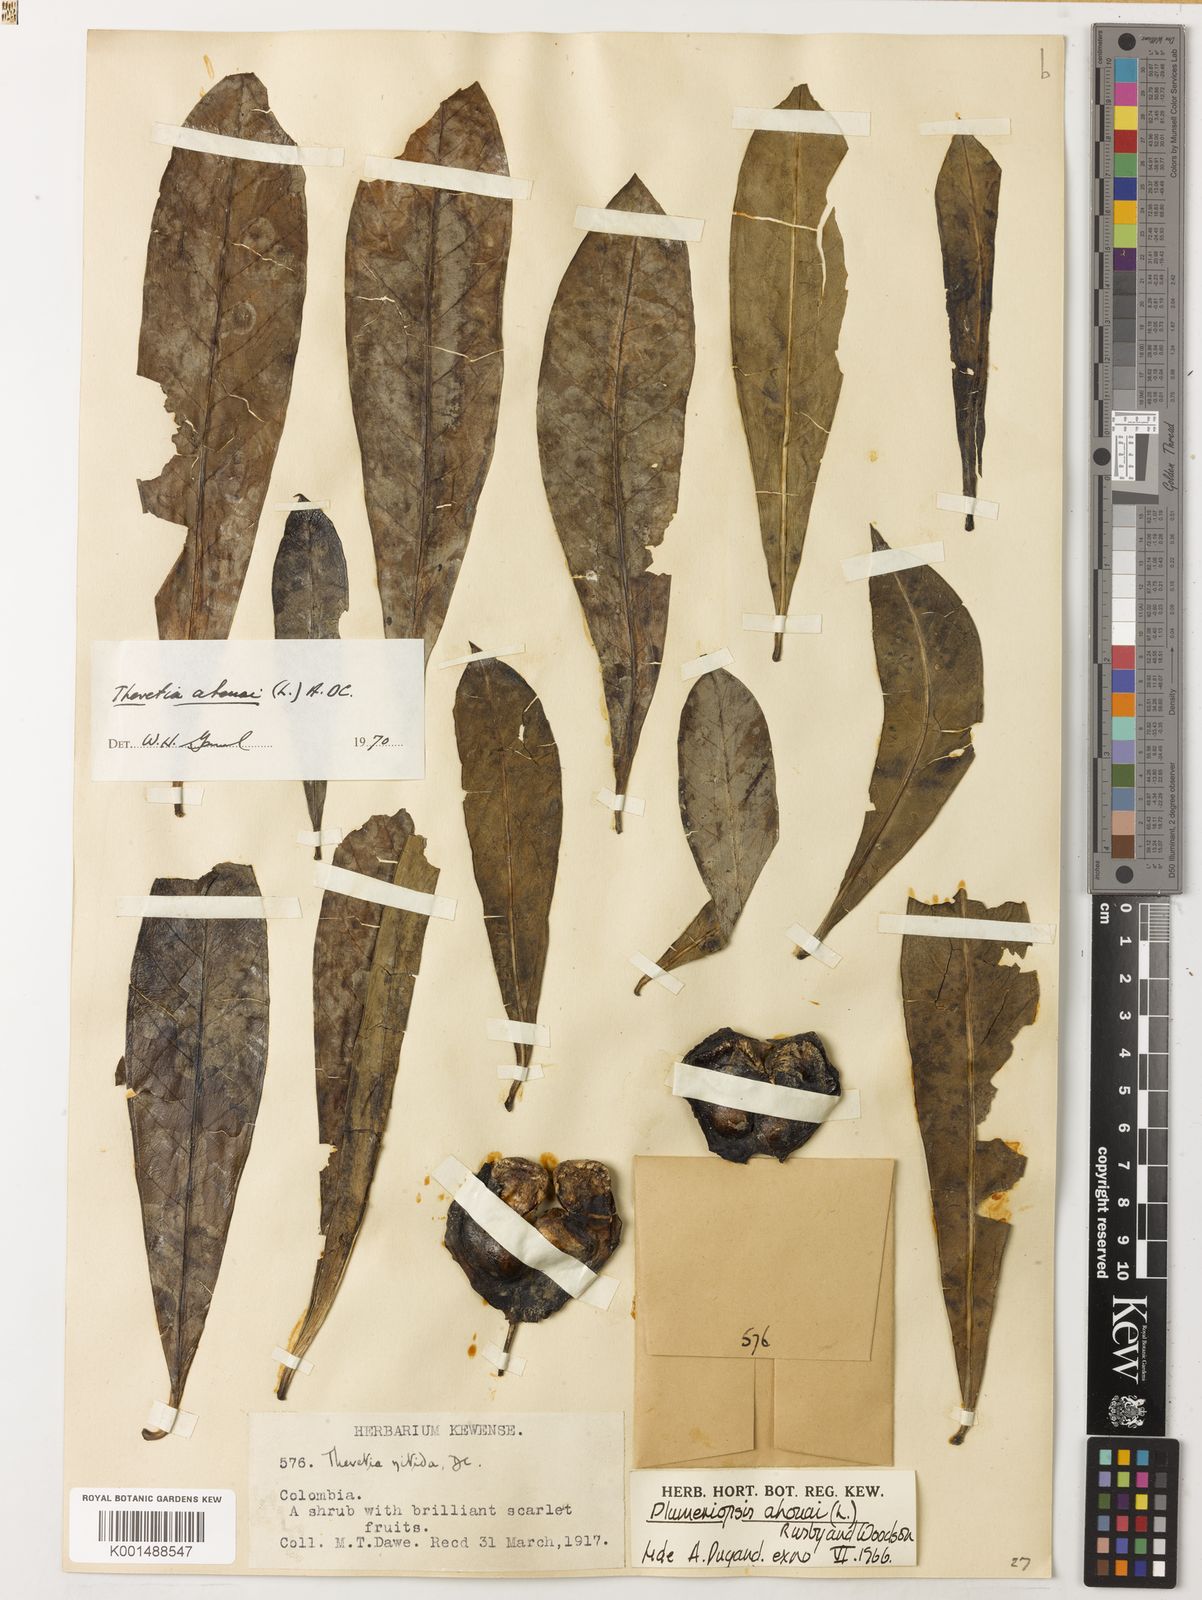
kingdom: Plantae
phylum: Tracheophyta
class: Magnoliopsida
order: Gentianales
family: Apocynaceae
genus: Thevetia
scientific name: Thevetia ahouai
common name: Broadleaf thevetia
